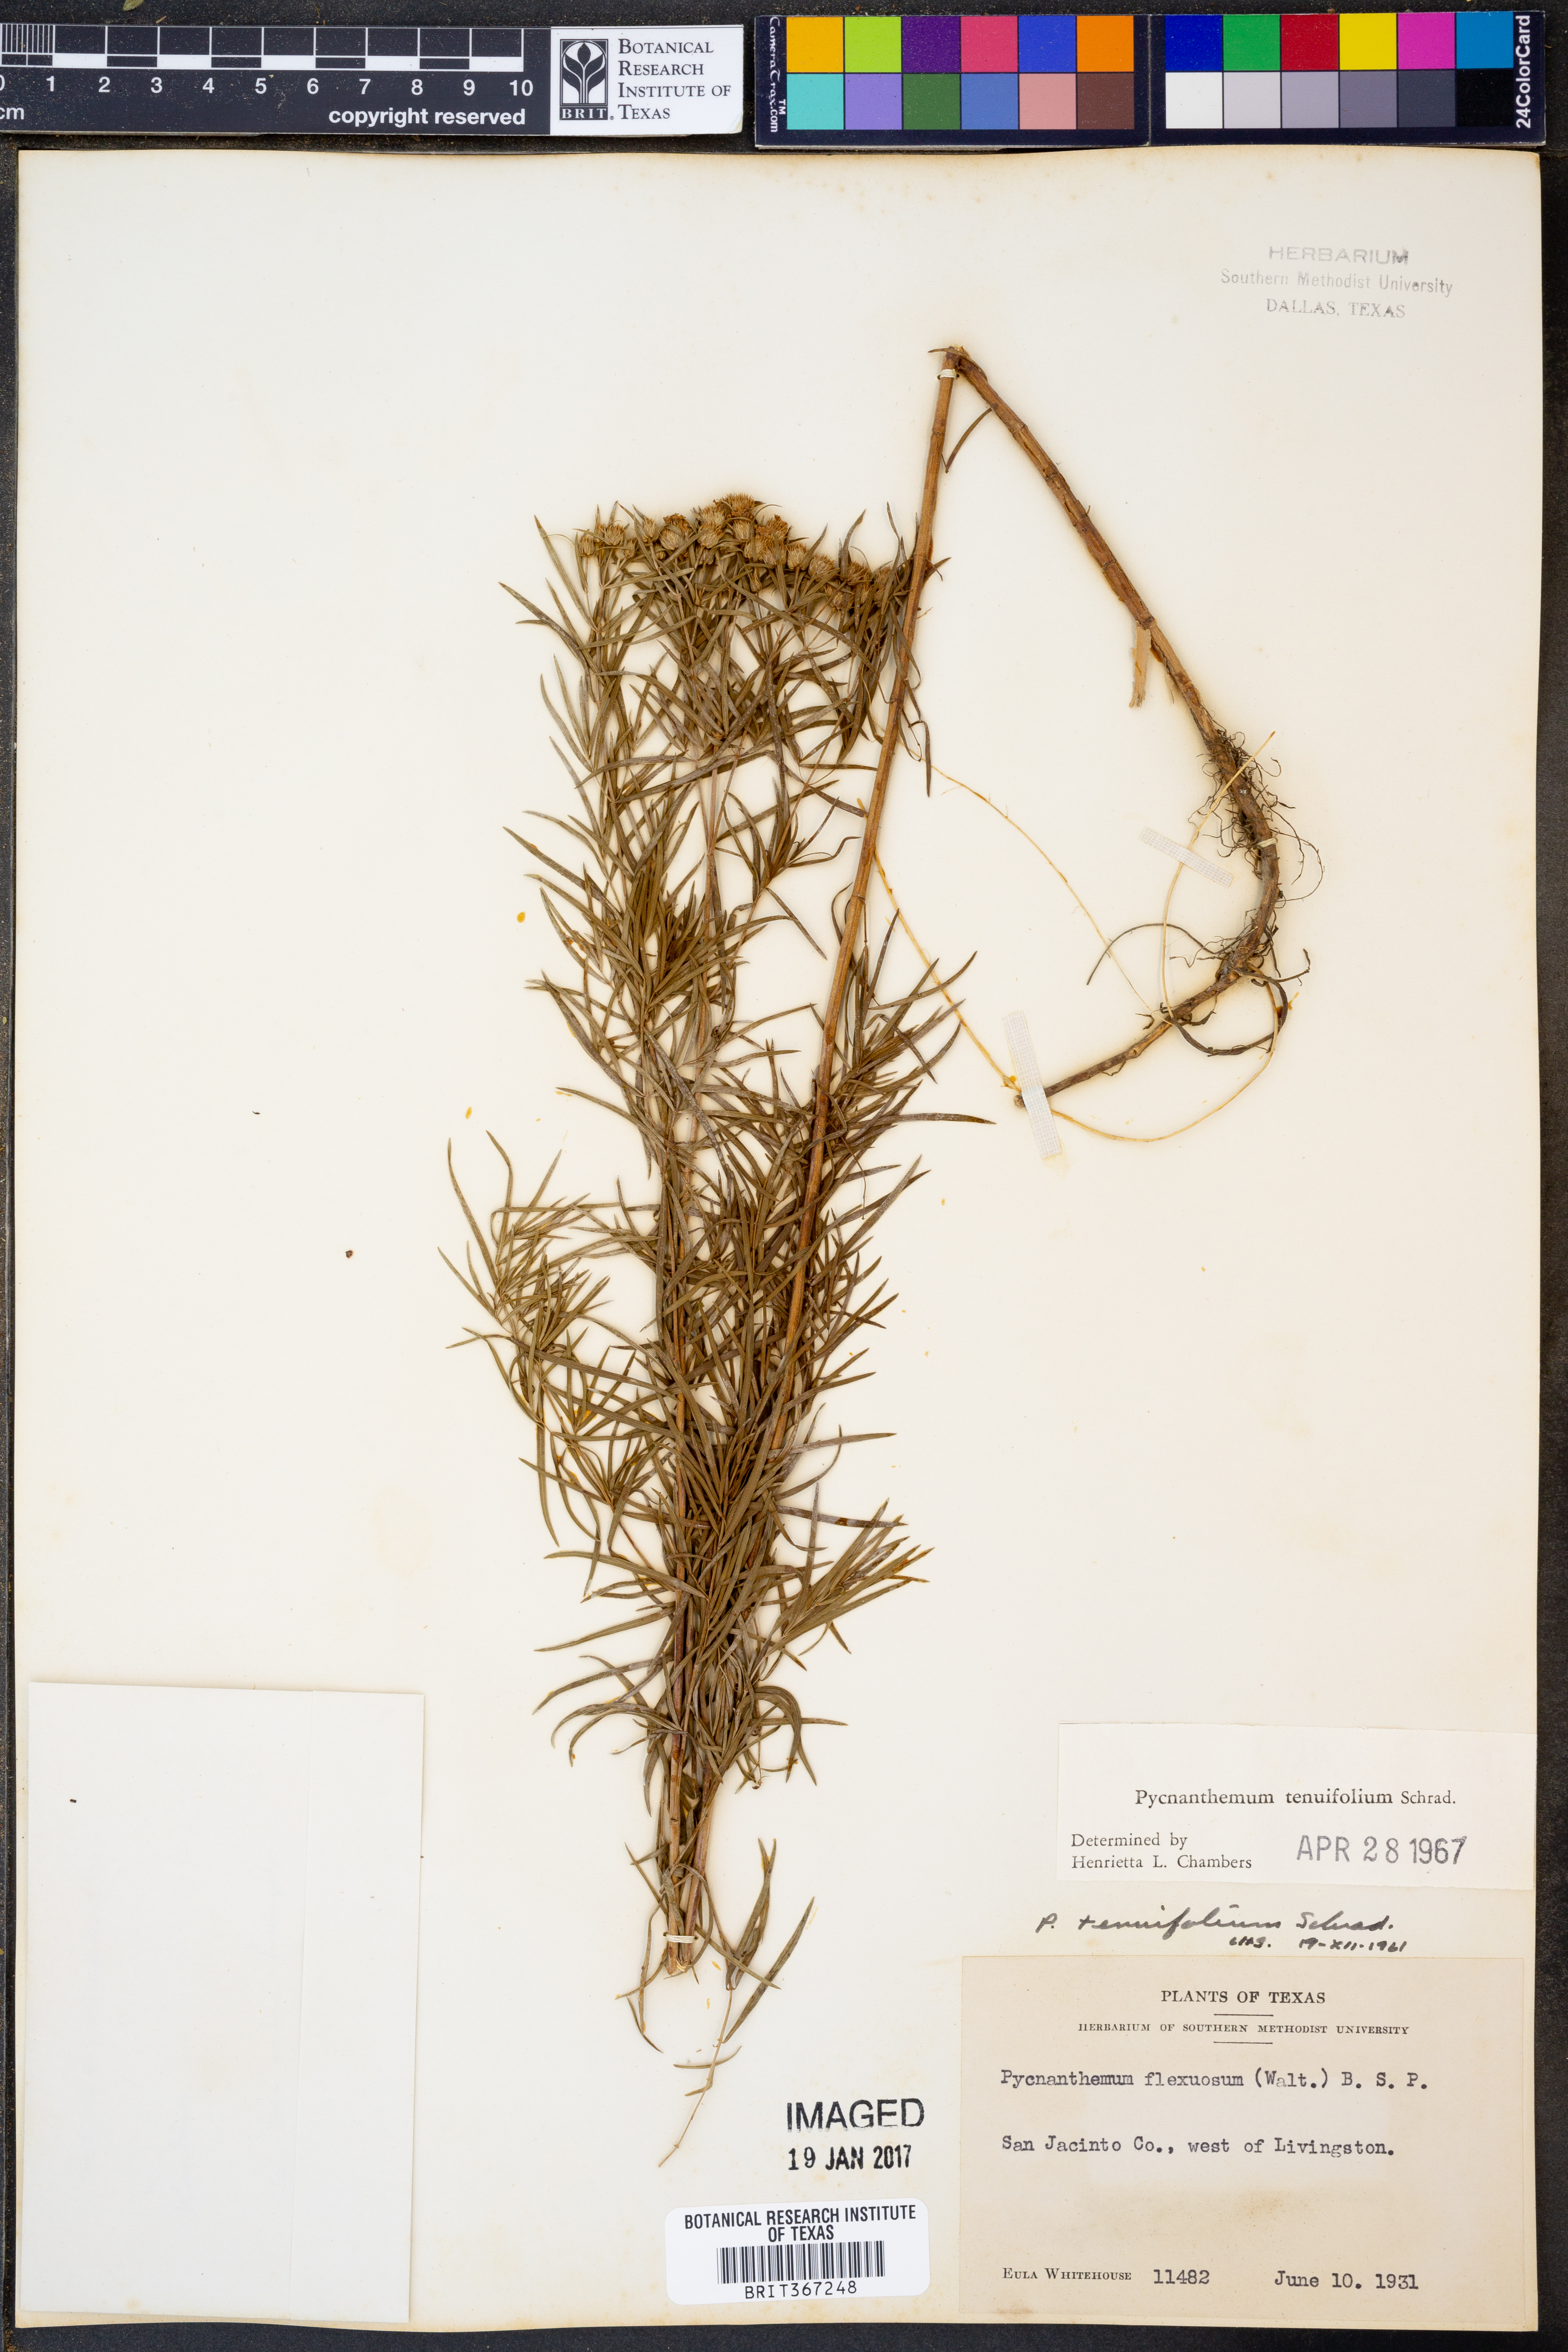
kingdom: Plantae
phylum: Tracheophyta
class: Magnoliopsida
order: Lamiales
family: Lamiaceae
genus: Pycnanthemum
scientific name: Pycnanthemum tenuifolium
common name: Narrow-leaf mountain-mint
